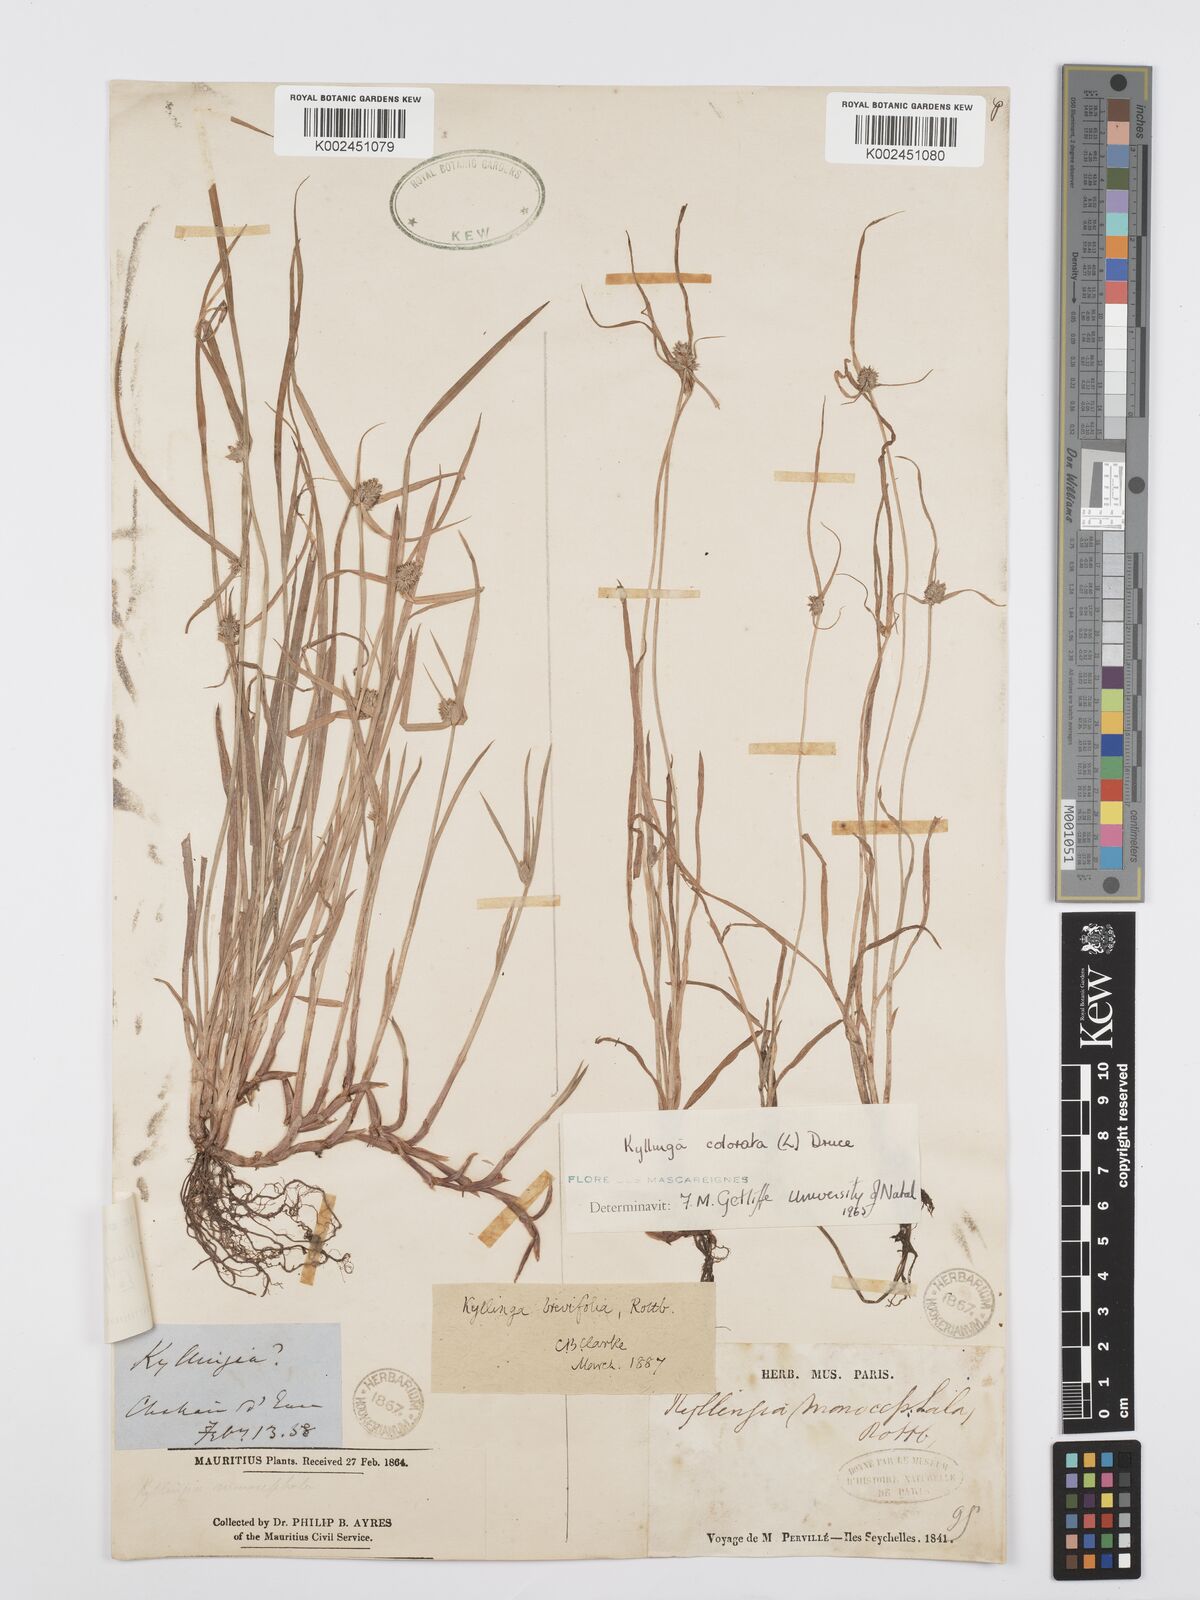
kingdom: Plantae
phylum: Tracheophyta
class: Liliopsida
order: Poales
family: Cyperaceae
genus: Cyperus
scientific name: Cyperus brevifolius
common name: Globe kyllinga
